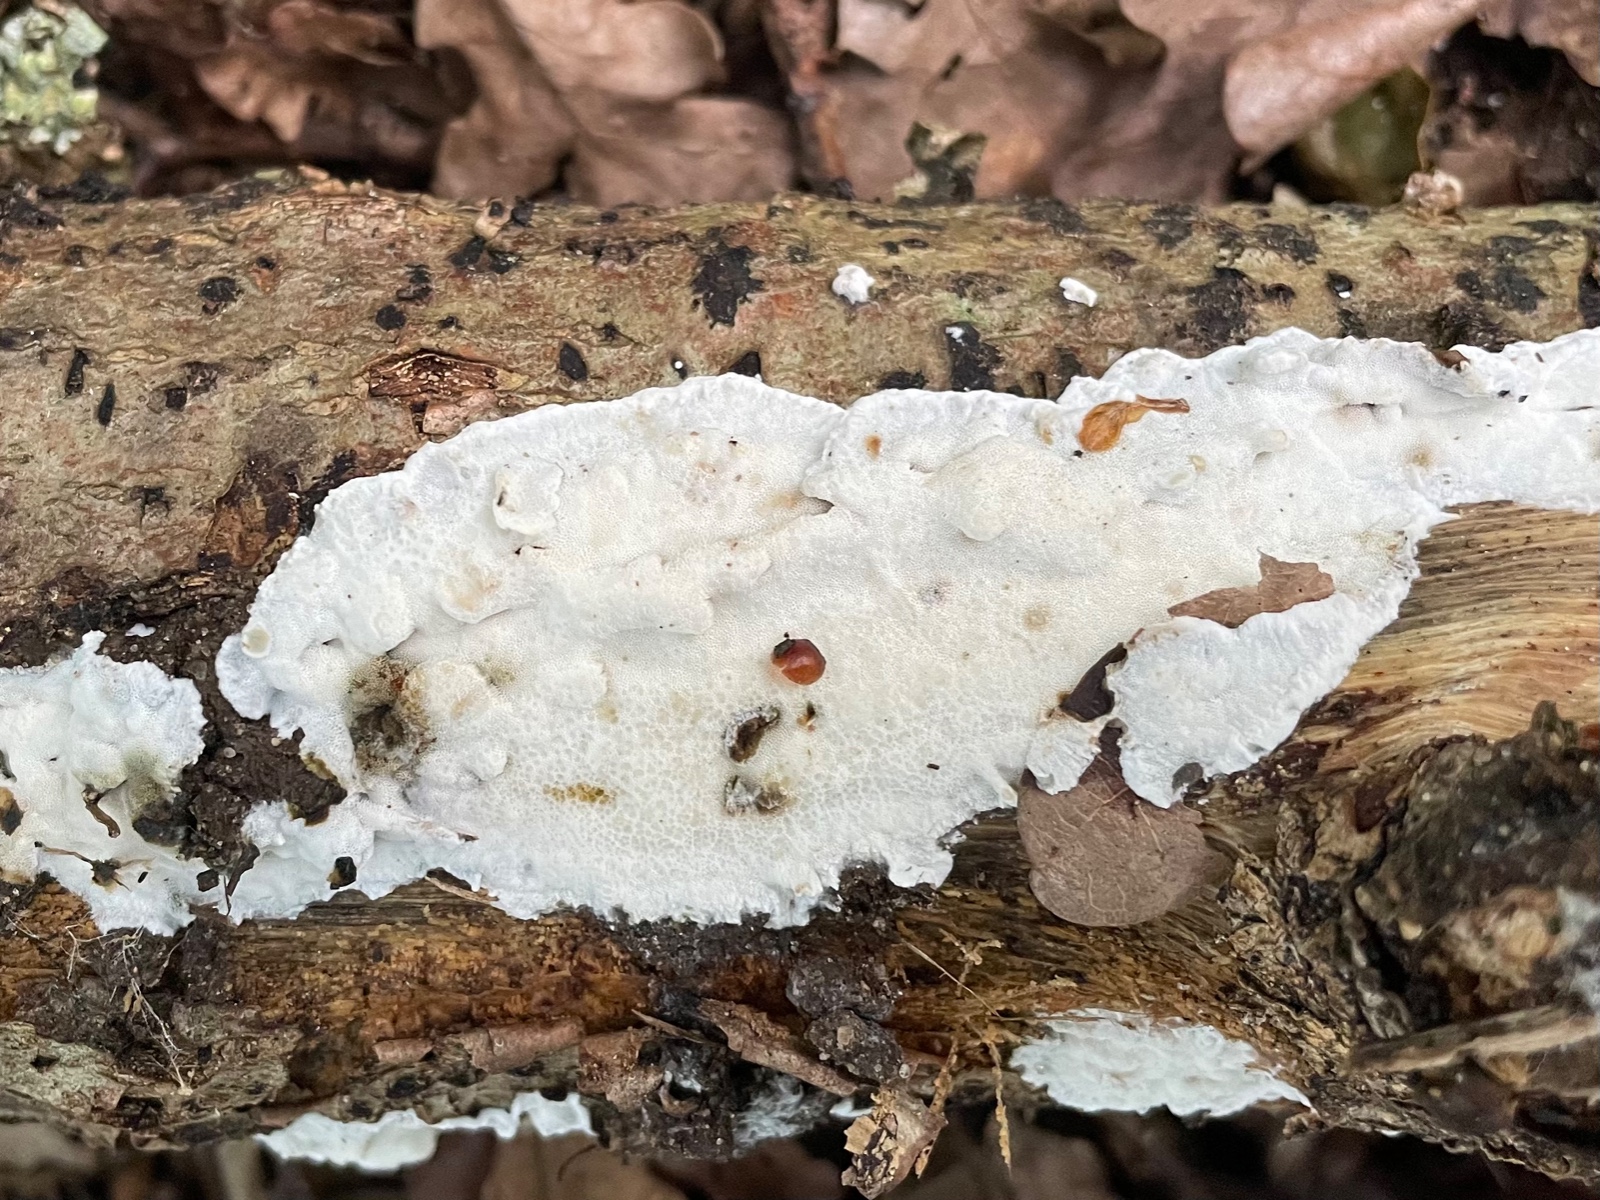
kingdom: Fungi
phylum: Basidiomycota
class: Agaricomycetes
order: Polyporales
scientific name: Polyporales
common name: poresvampordenen
